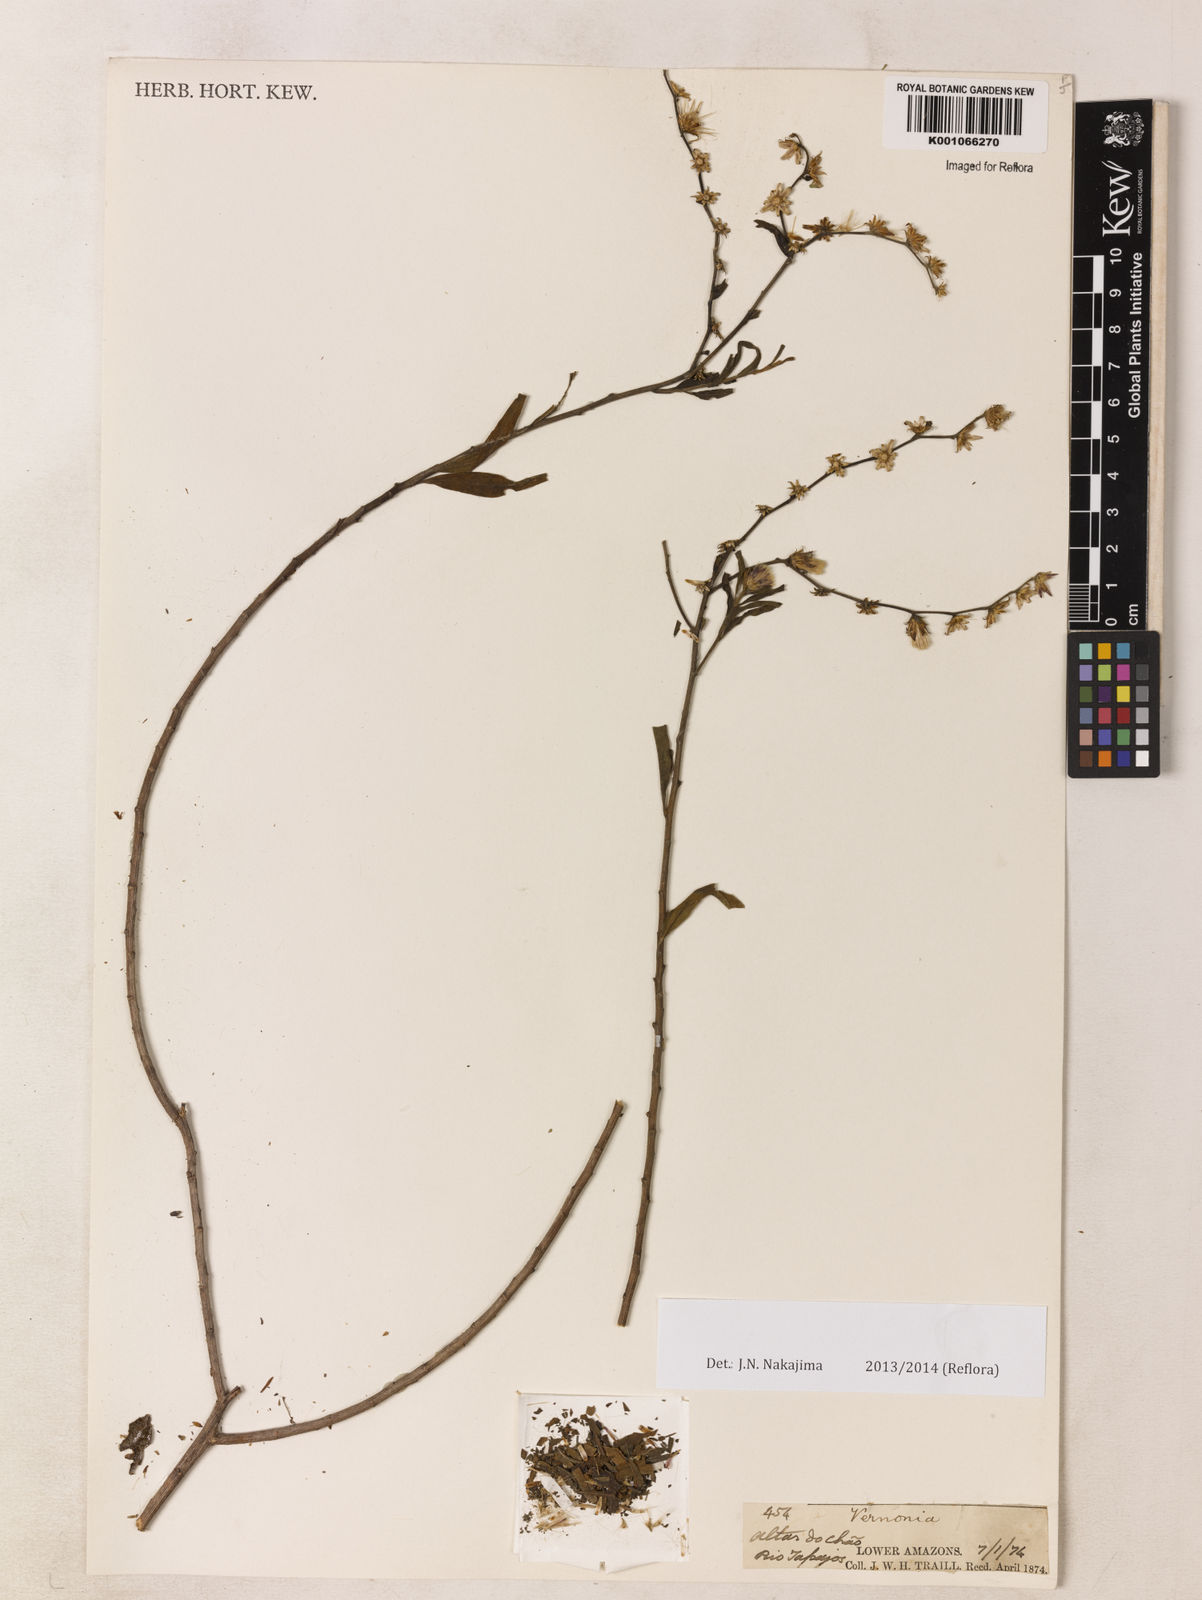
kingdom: Plantae
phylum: Tracheophyta
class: Magnoliopsida
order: Asterales
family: Asteraceae
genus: Xiphochaeta
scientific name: Xiphochaeta aquatica
